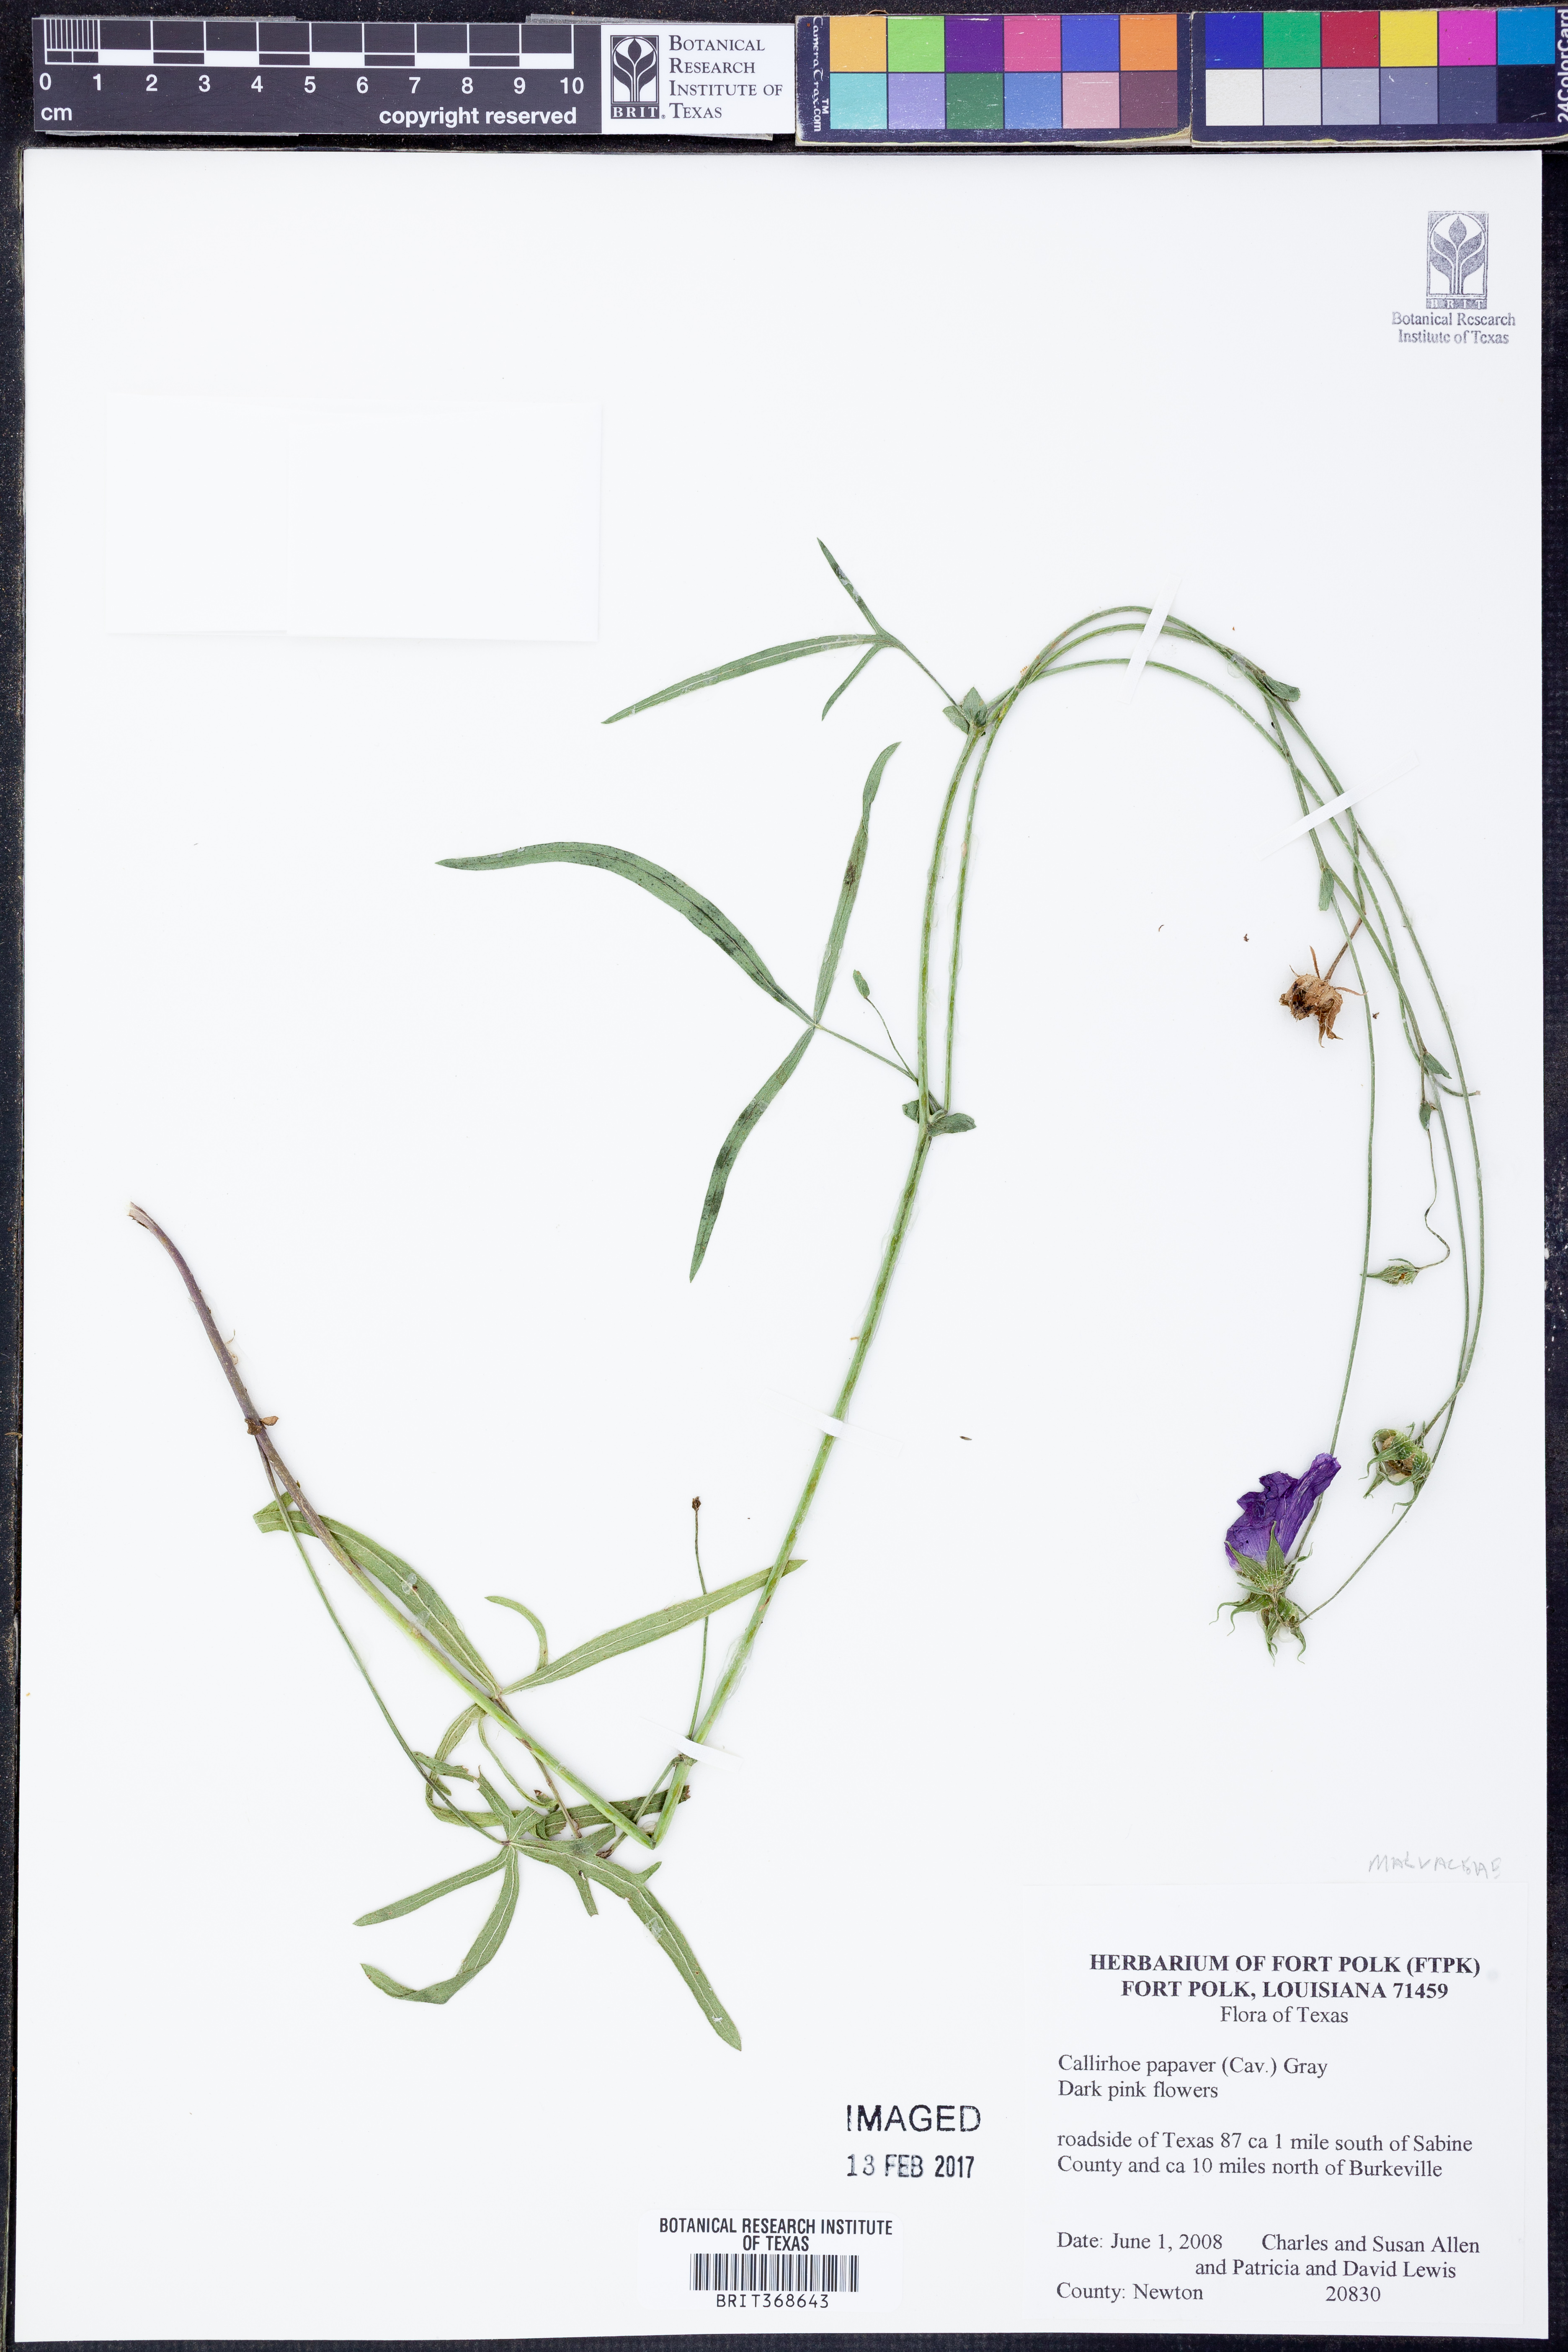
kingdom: Plantae
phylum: Tracheophyta
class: Magnoliopsida
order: Malvales
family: Malvaceae
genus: Callirhoe
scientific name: Callirhoe papaver
